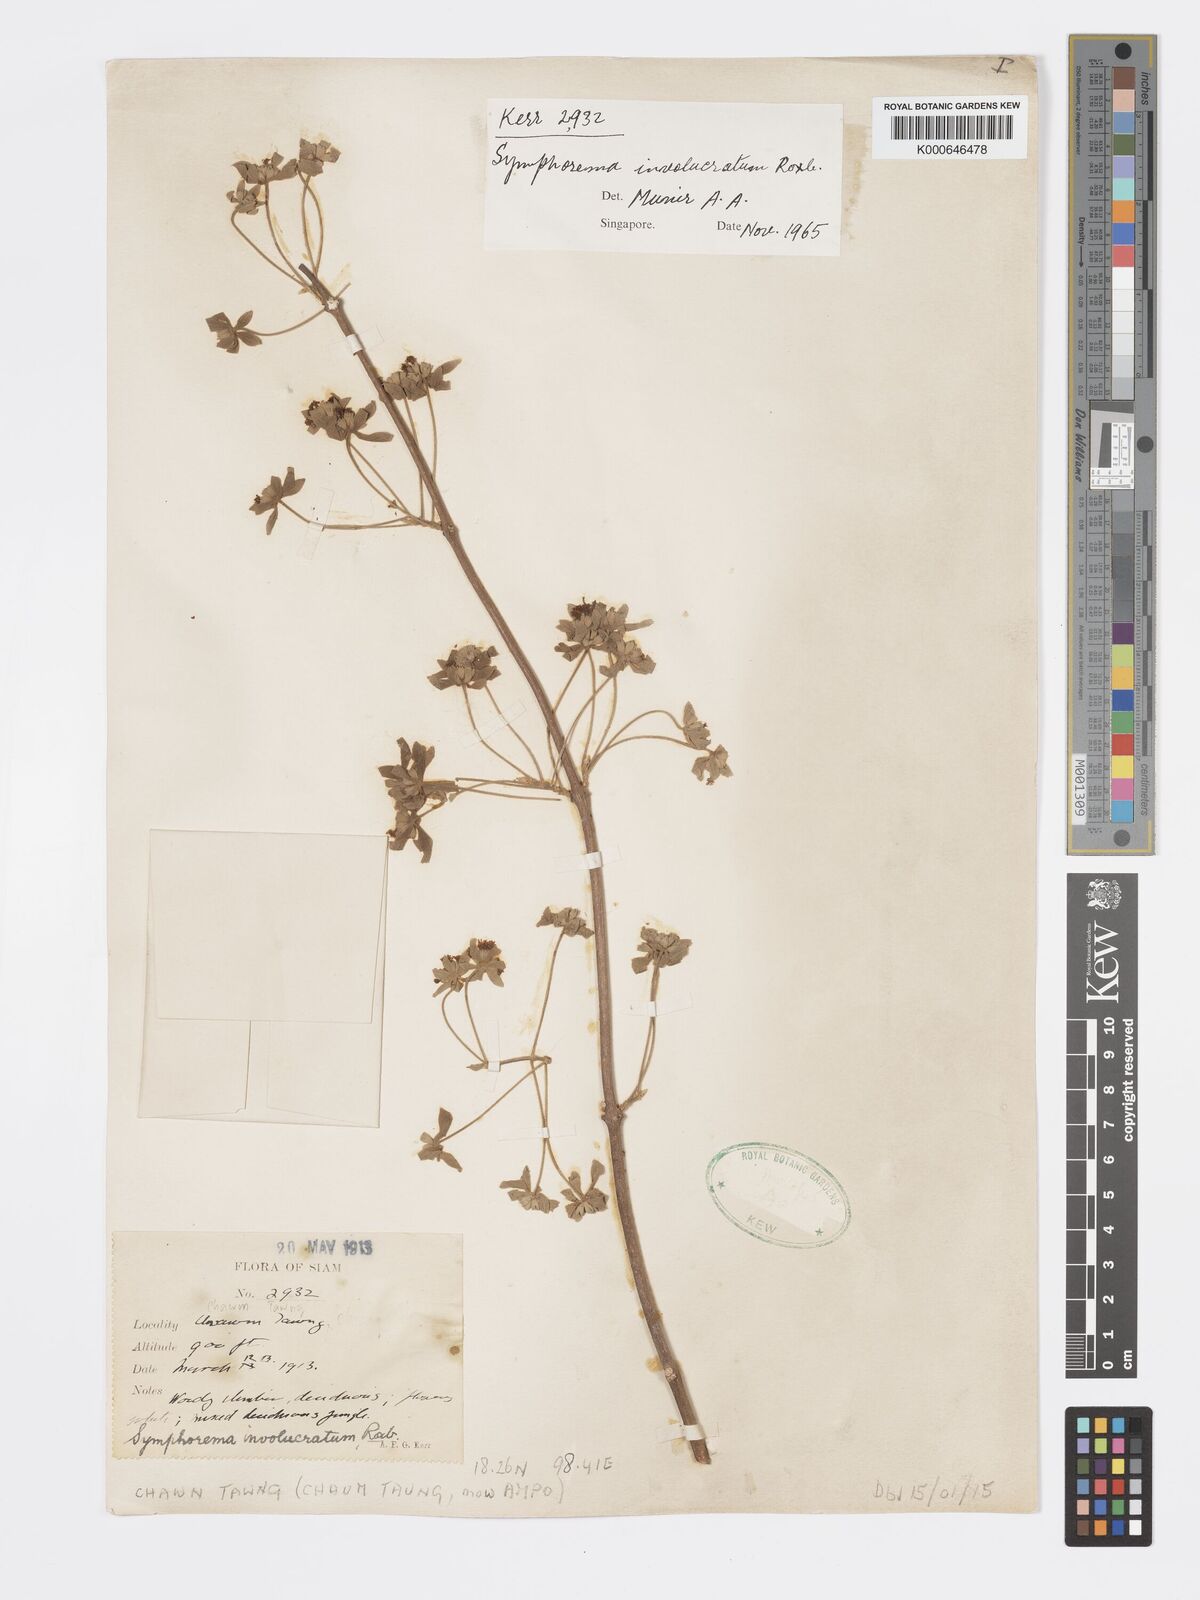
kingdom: Plantae
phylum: Tracheophyta
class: Magnoliopsida
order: Lamiales
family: Lamiaceae
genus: Symphorema
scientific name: Symphorema involucratum
